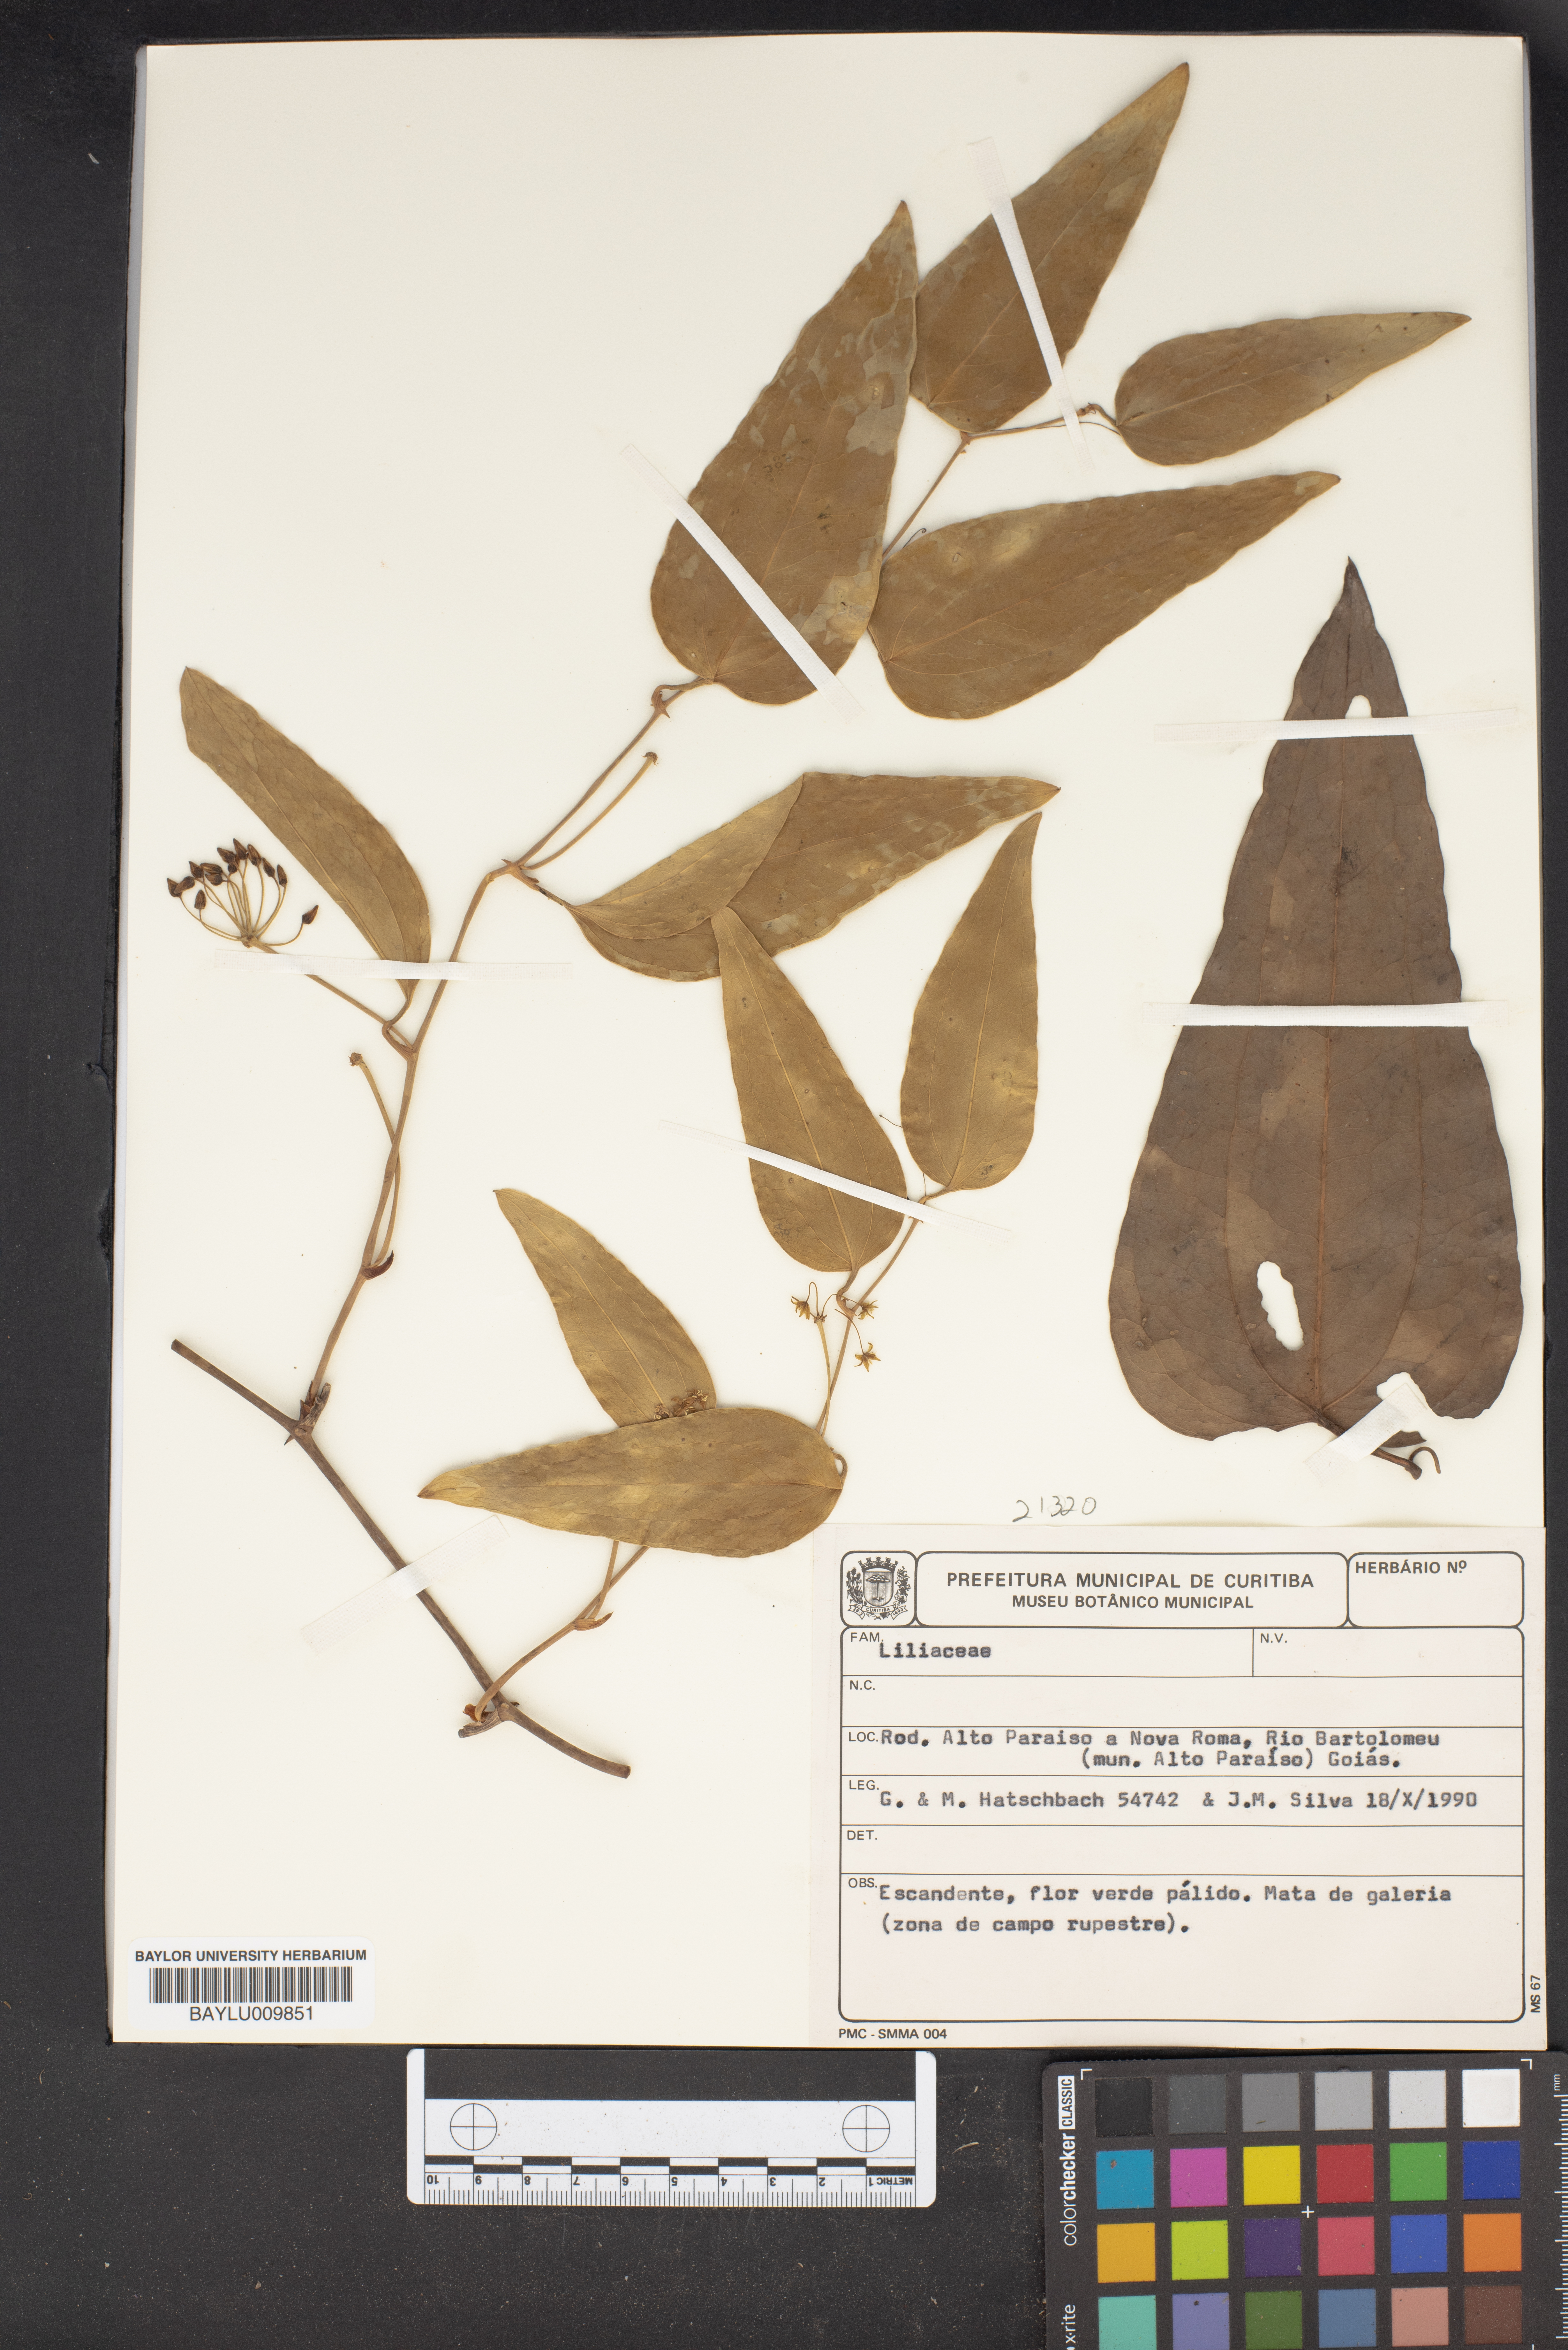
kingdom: Plantae
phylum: Tracheophyta
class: Liliopsida
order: Liliales
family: Liliaceae
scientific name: Liliaceae
